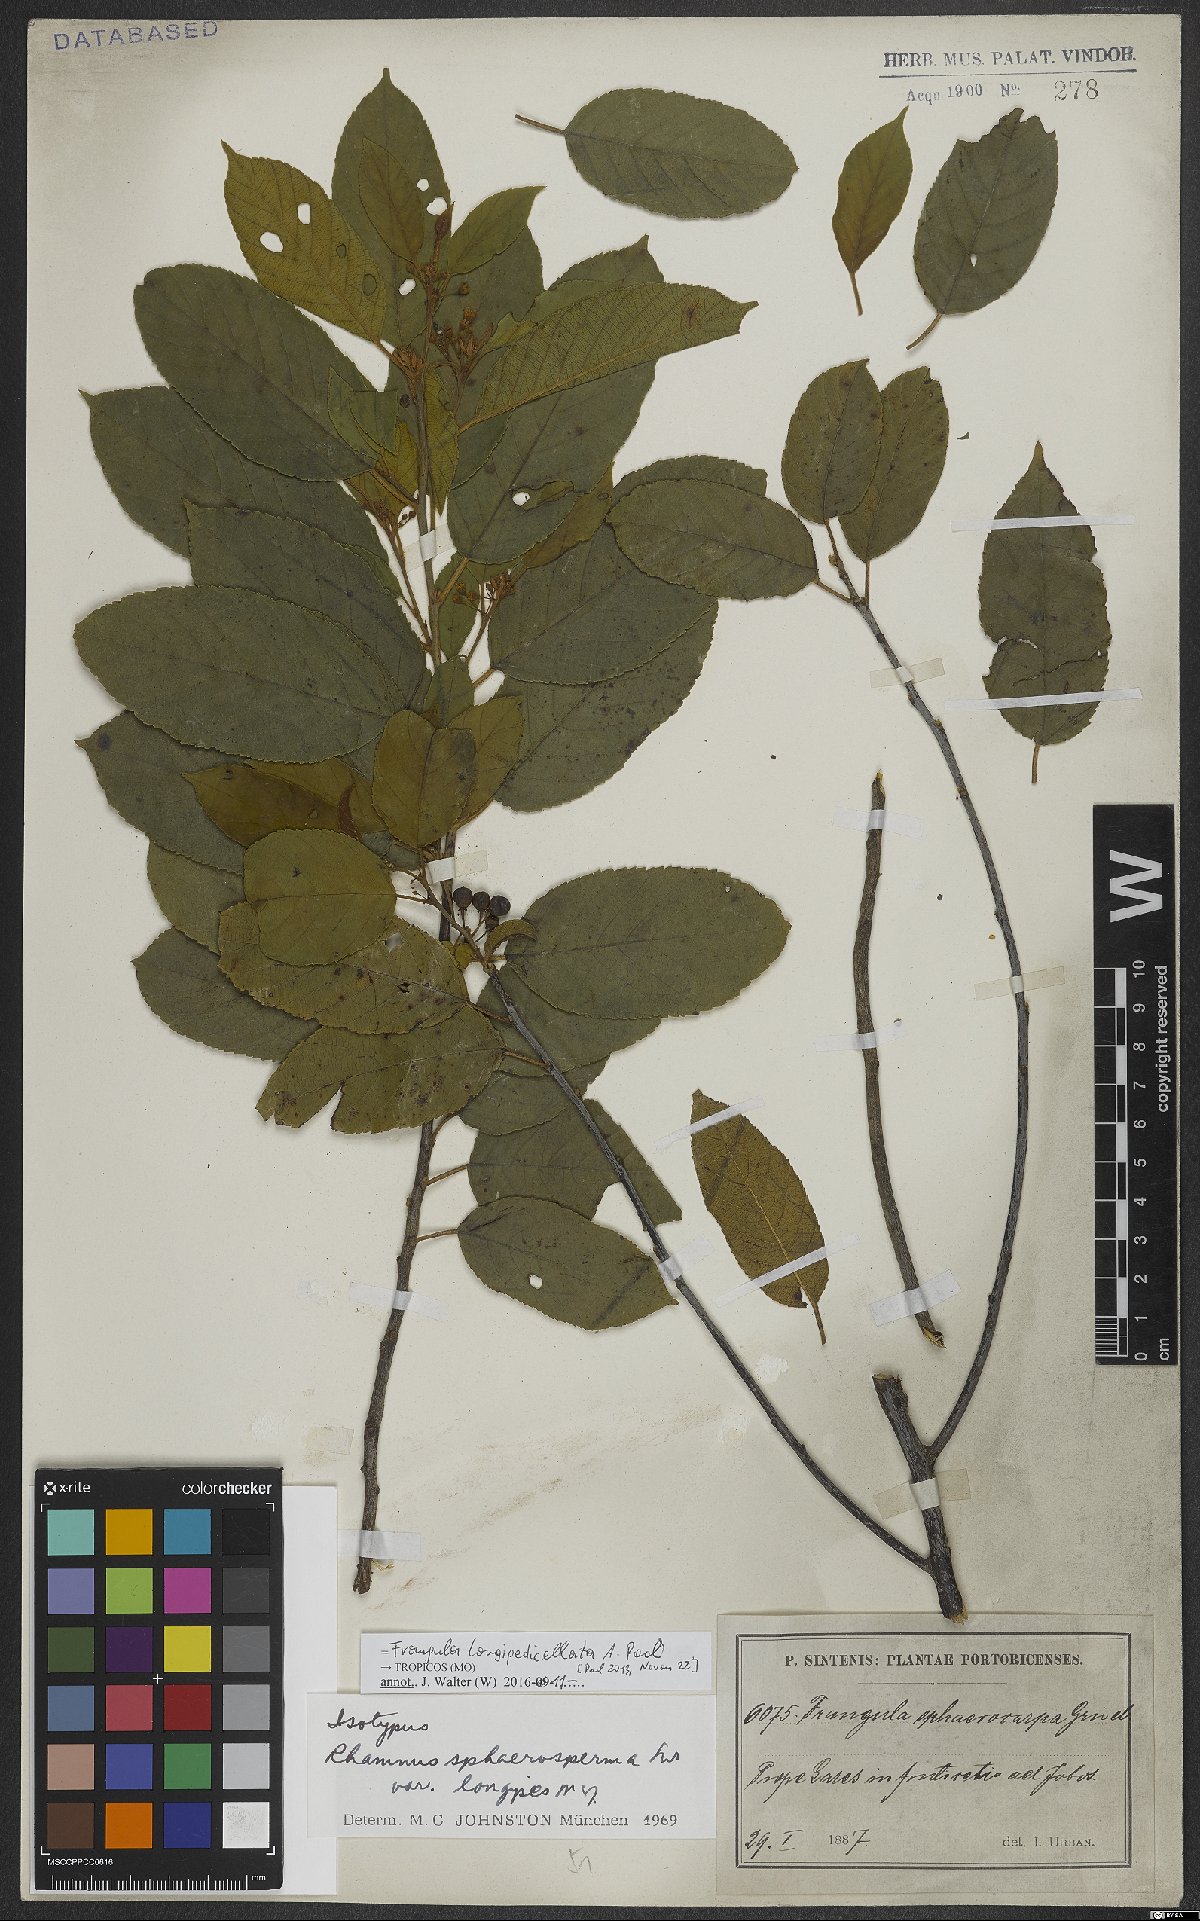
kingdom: Plantae
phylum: Tracheophyta
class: Magnoliopsida
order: Rosales
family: Rhamnaceae
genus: Frangula
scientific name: Frangula longipedicellata
